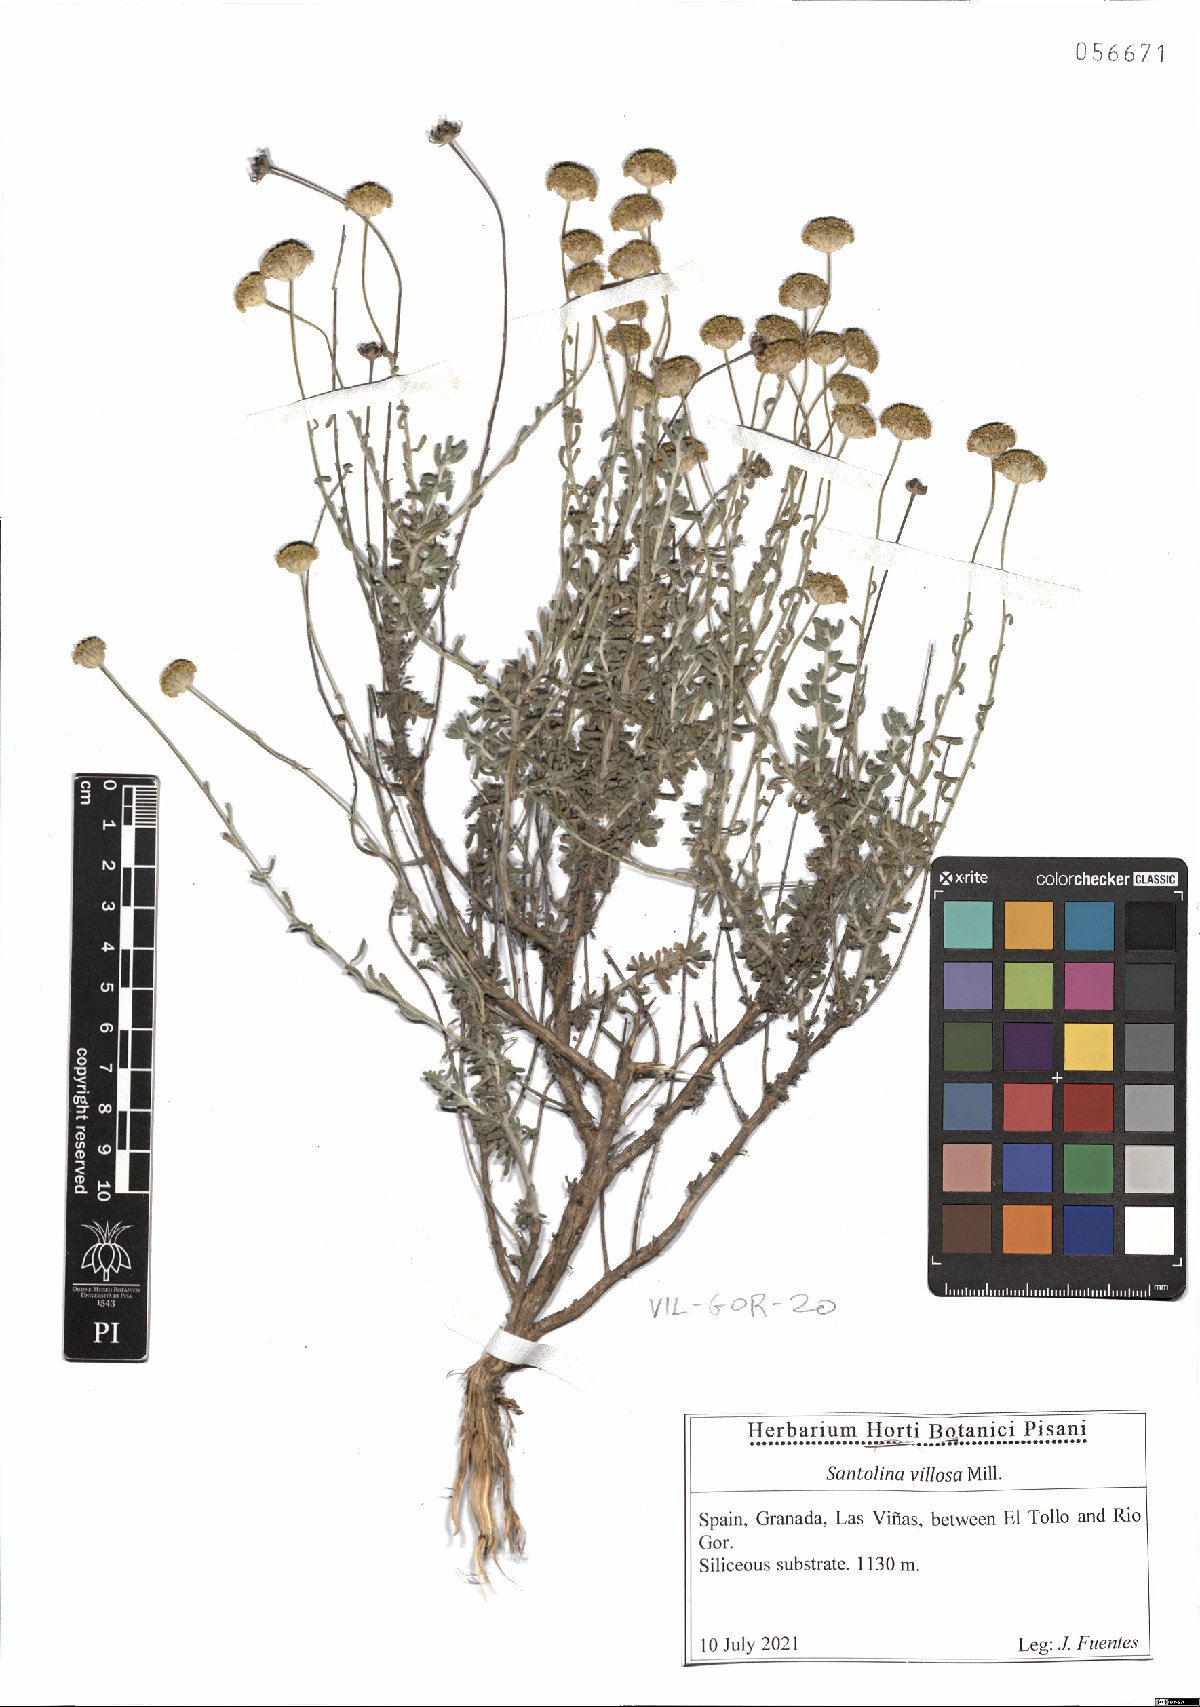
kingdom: Plantae
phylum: Tracheophyta
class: Magnoliopsida
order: Asterales
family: Asteraceae
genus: Santolina
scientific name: Santolina chamaecyparissus
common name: Lavender-cotton
